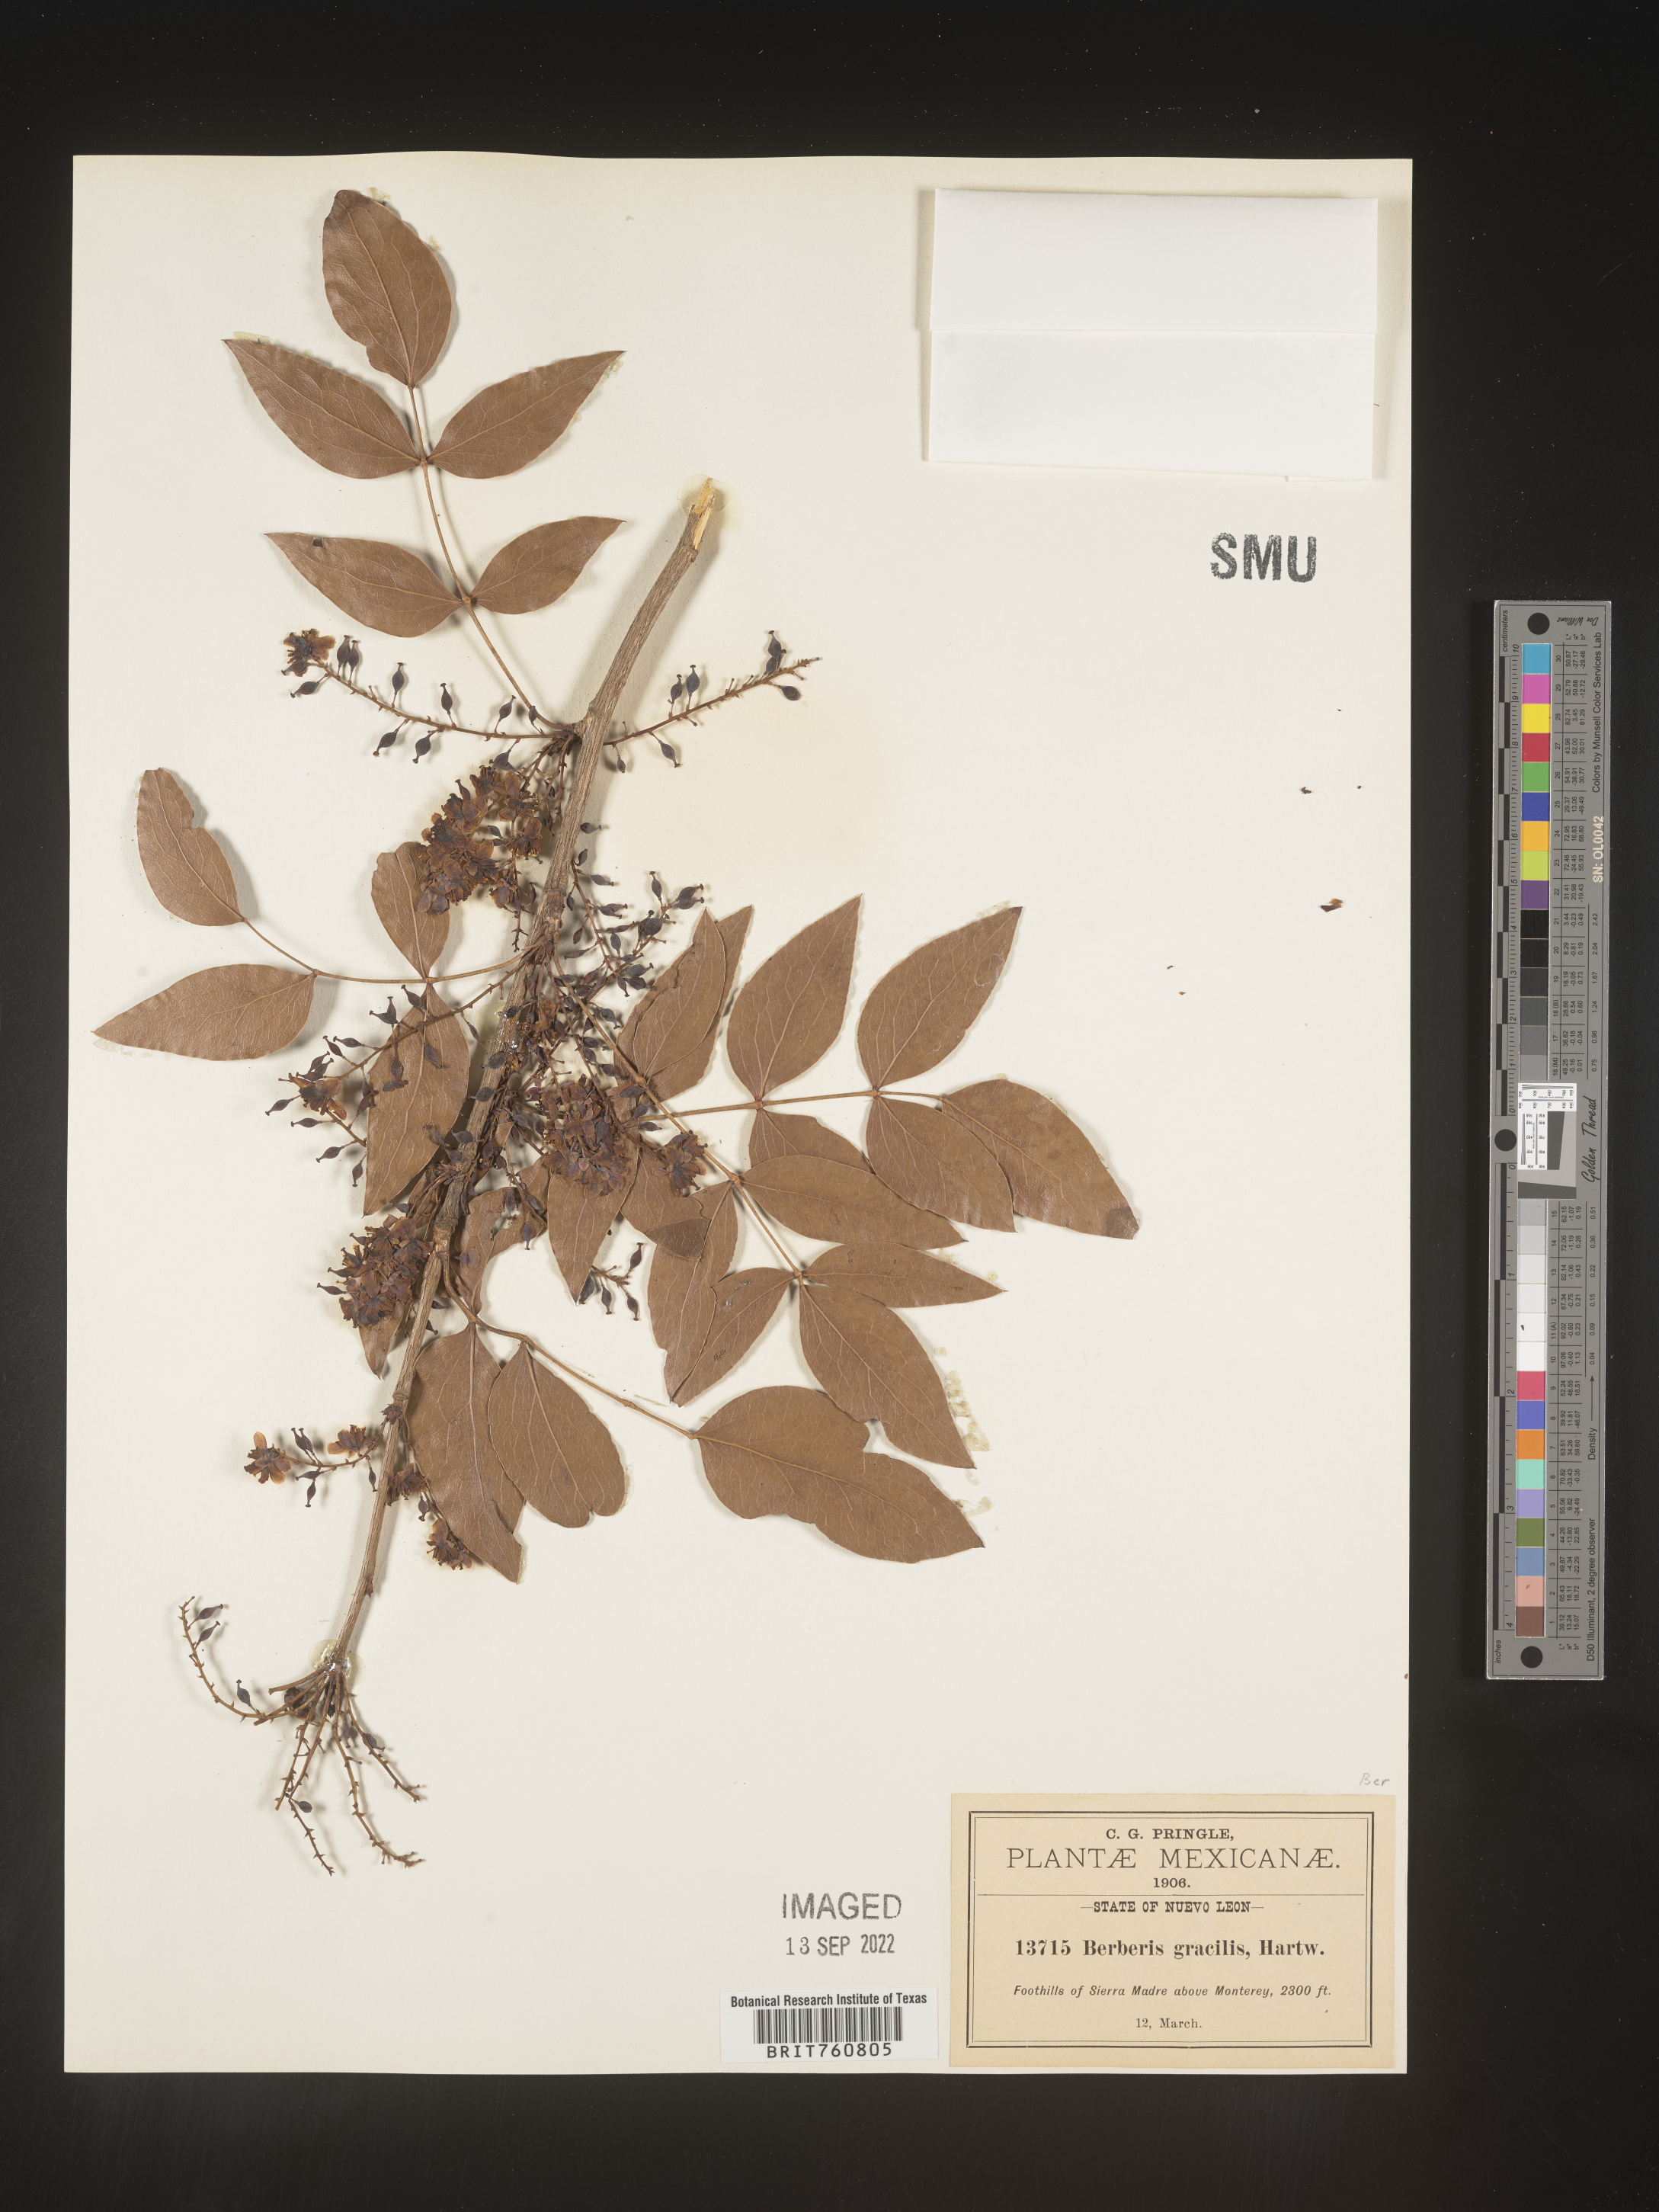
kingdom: Plantae
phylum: Tracheophyta
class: Magnoliopsida
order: Ranunculales
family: Berberidaceae
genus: Berberis
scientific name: Berberis
